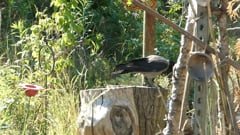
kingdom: Animalia
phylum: Chordata
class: Aves
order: Passeriformes
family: Corvidae
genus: Corvus
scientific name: Corvus cornix
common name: Hooded crow
